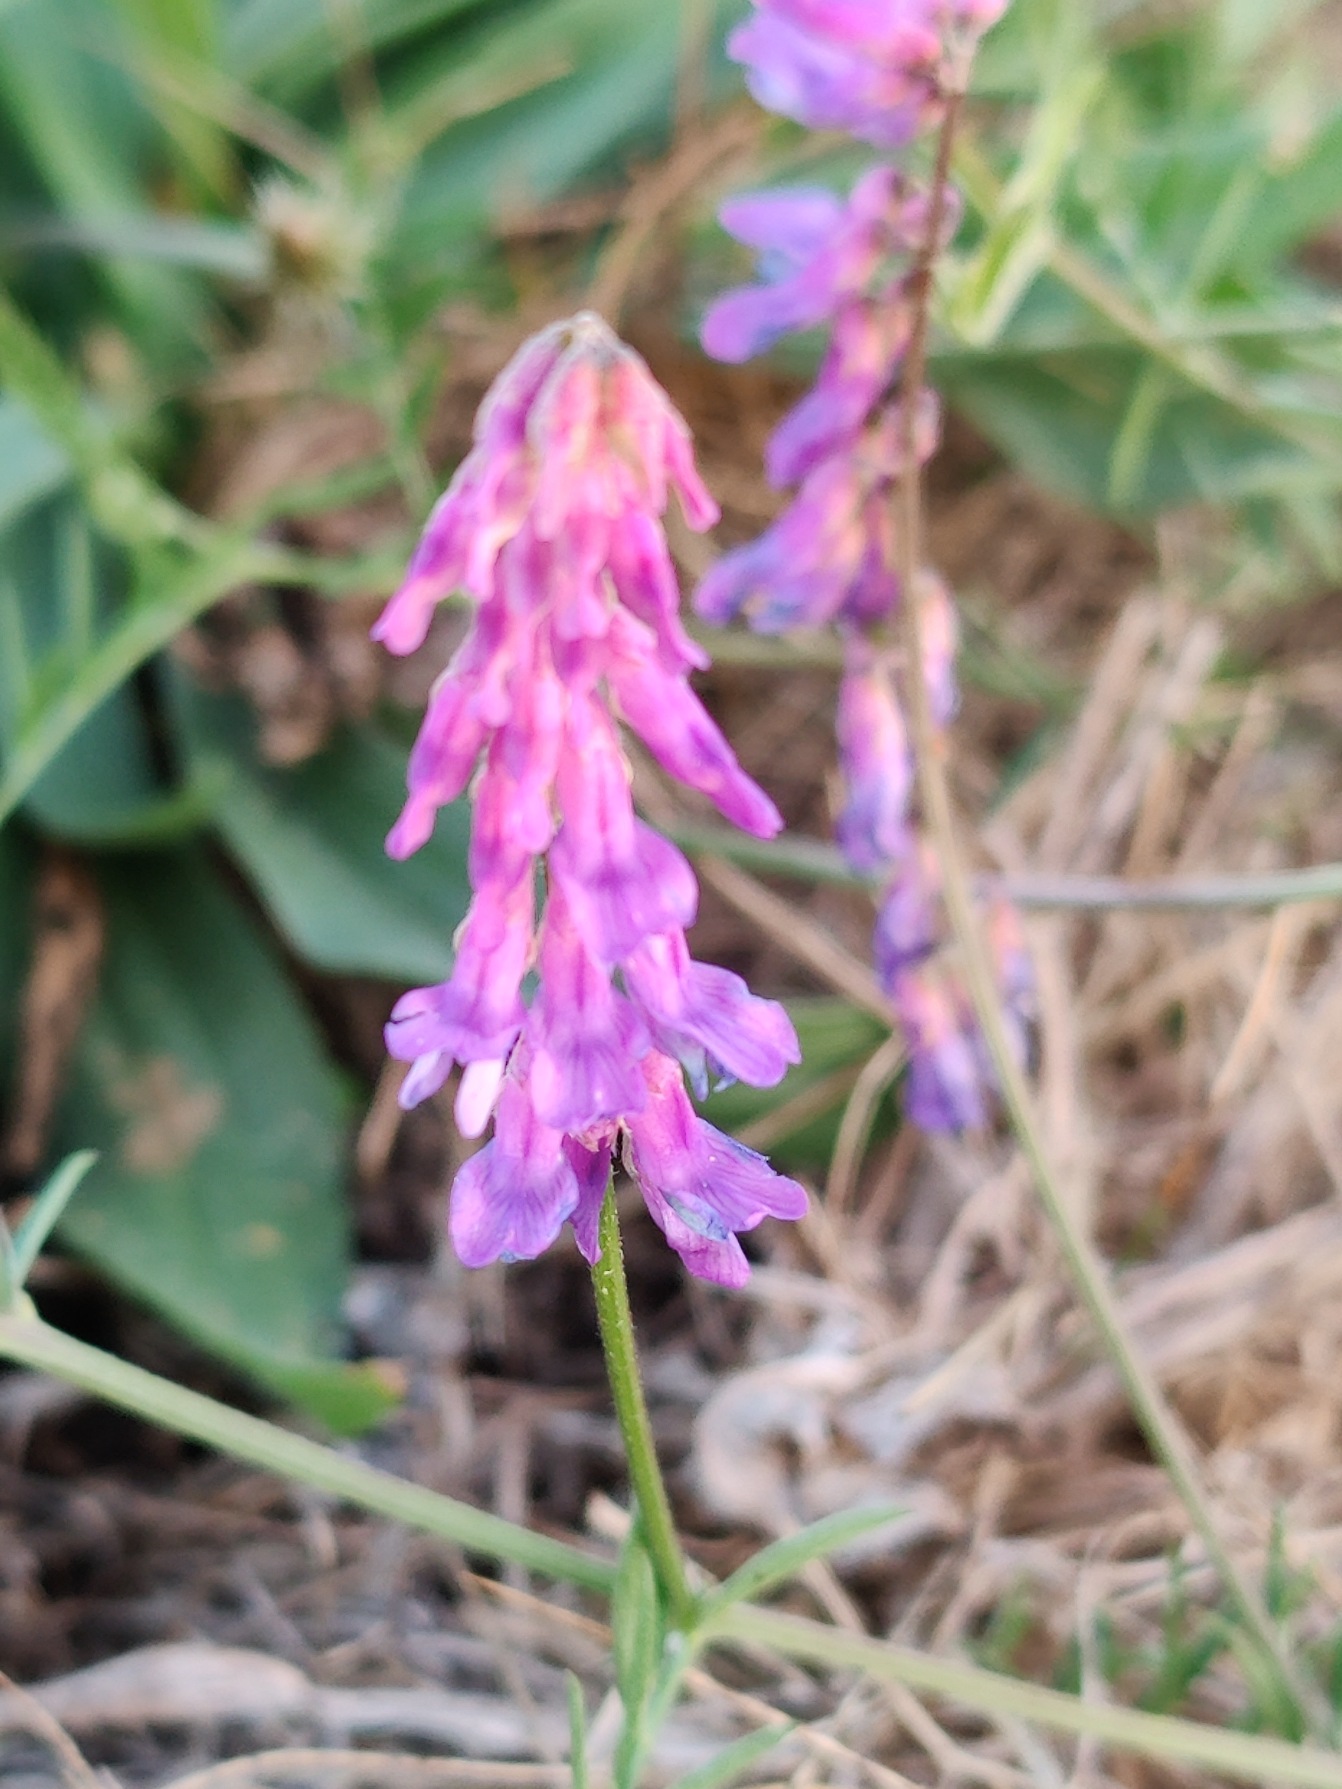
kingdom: Plantae
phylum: Tracheophyta
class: Magnoliopsida
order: Fabales
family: Fabaceae
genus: Vicia
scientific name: Vicia cracca
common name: Muse-vikke
